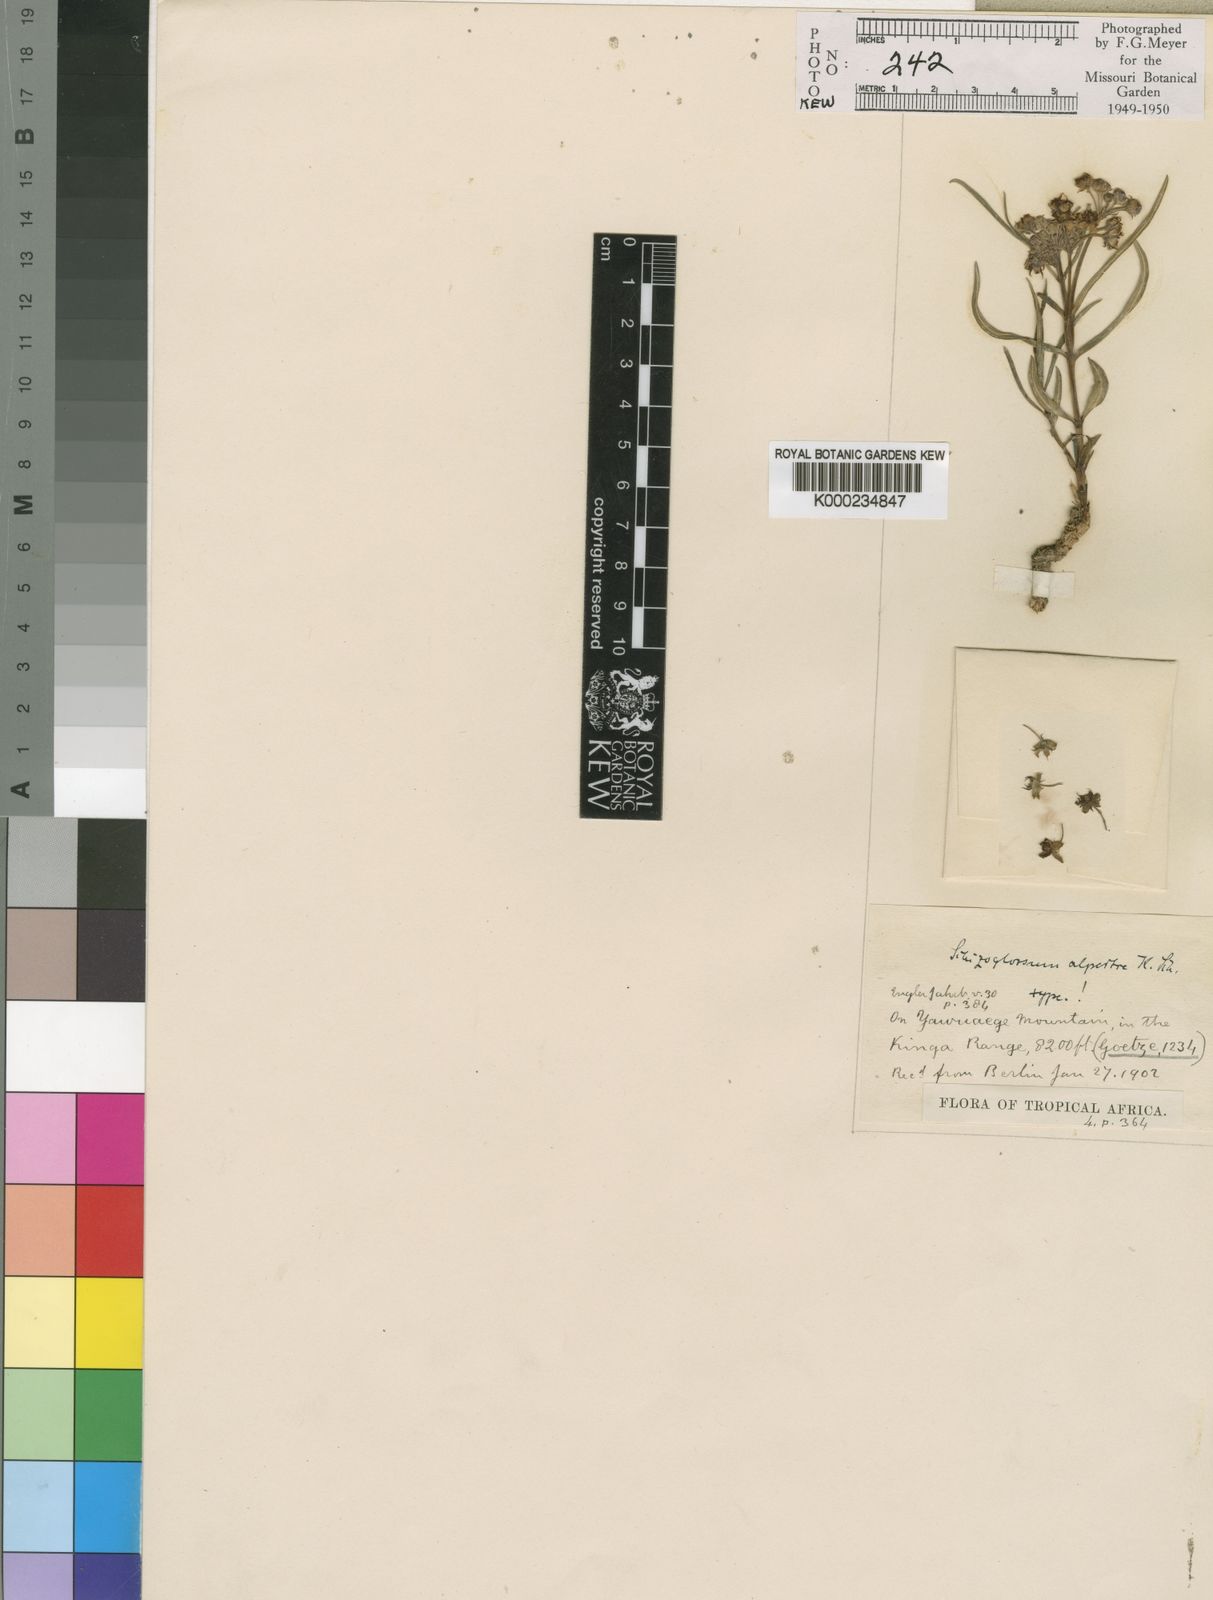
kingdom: Plantae
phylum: Tracheophyta
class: Magnoliopsida
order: Gentianales
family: Apocynaceae
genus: Asclepias
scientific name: Asclepias alpestris
